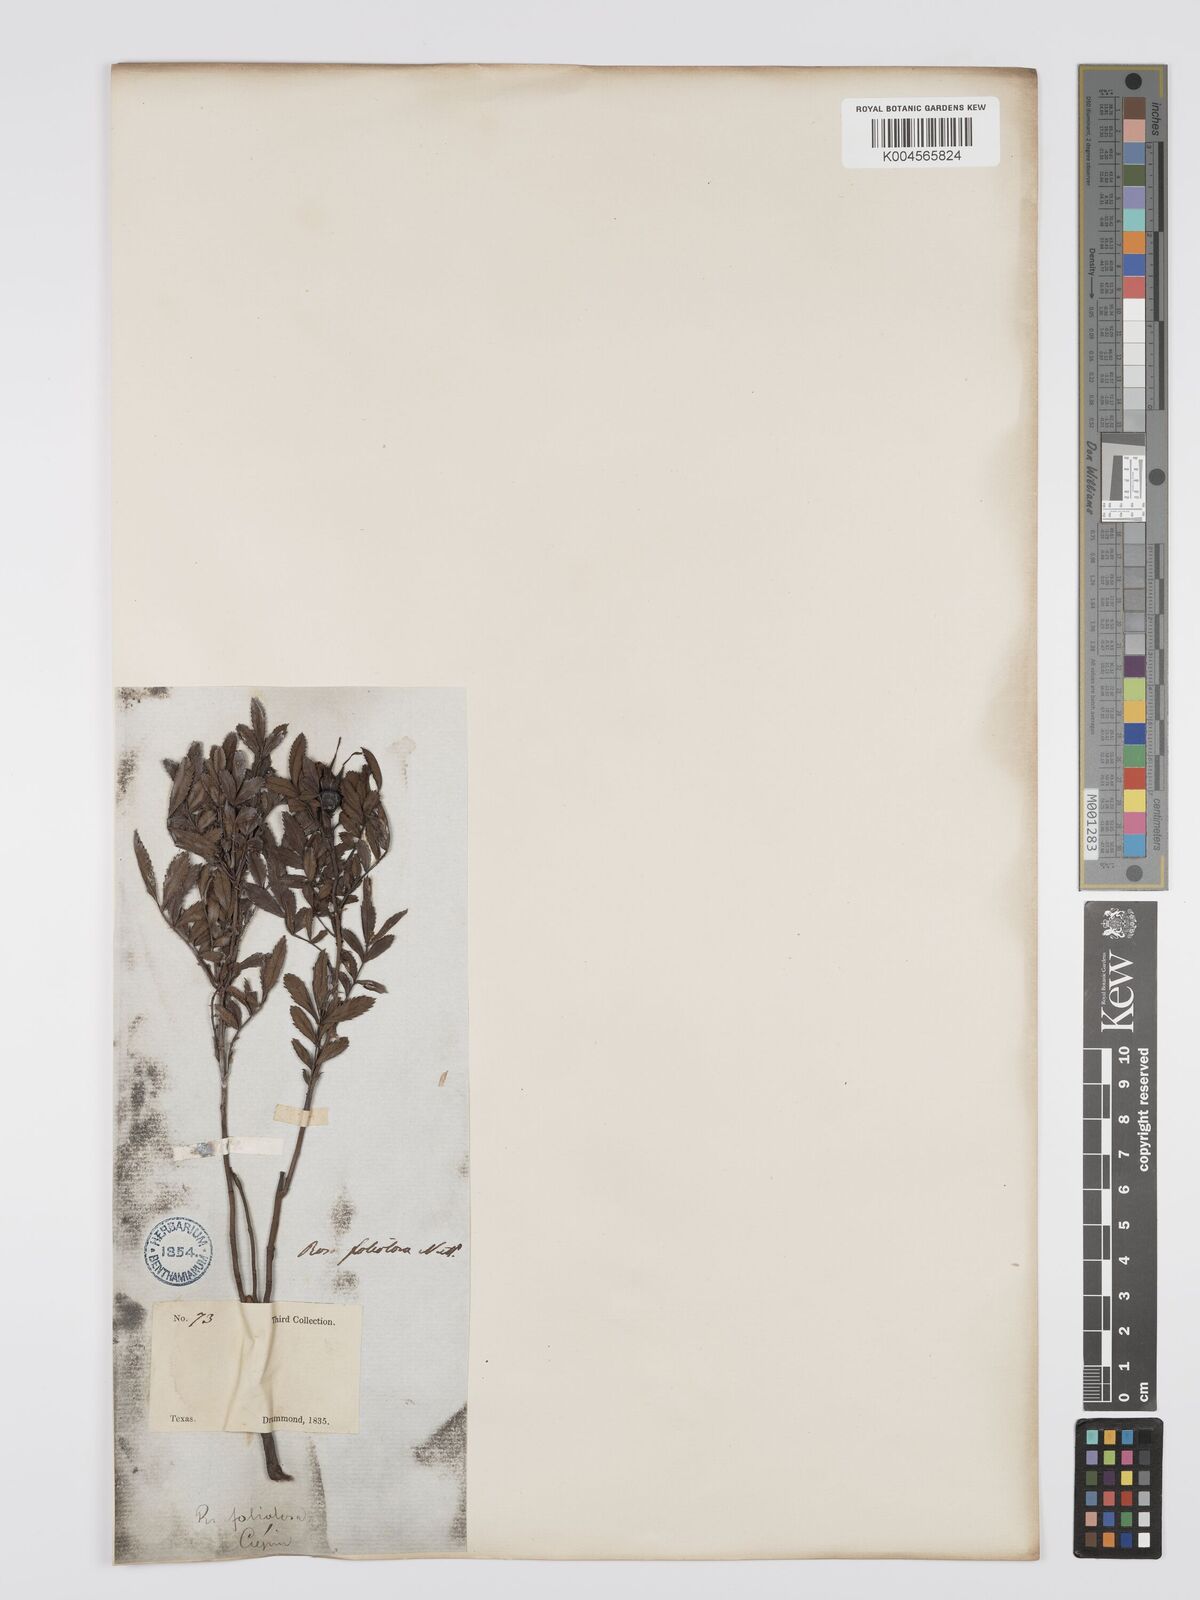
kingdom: Plantae
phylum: Tracheophyta
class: Magnoliopsida
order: Rosales
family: Rosaceae
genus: Rosa
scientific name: Rosa foliolosa
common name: White prairie rose
